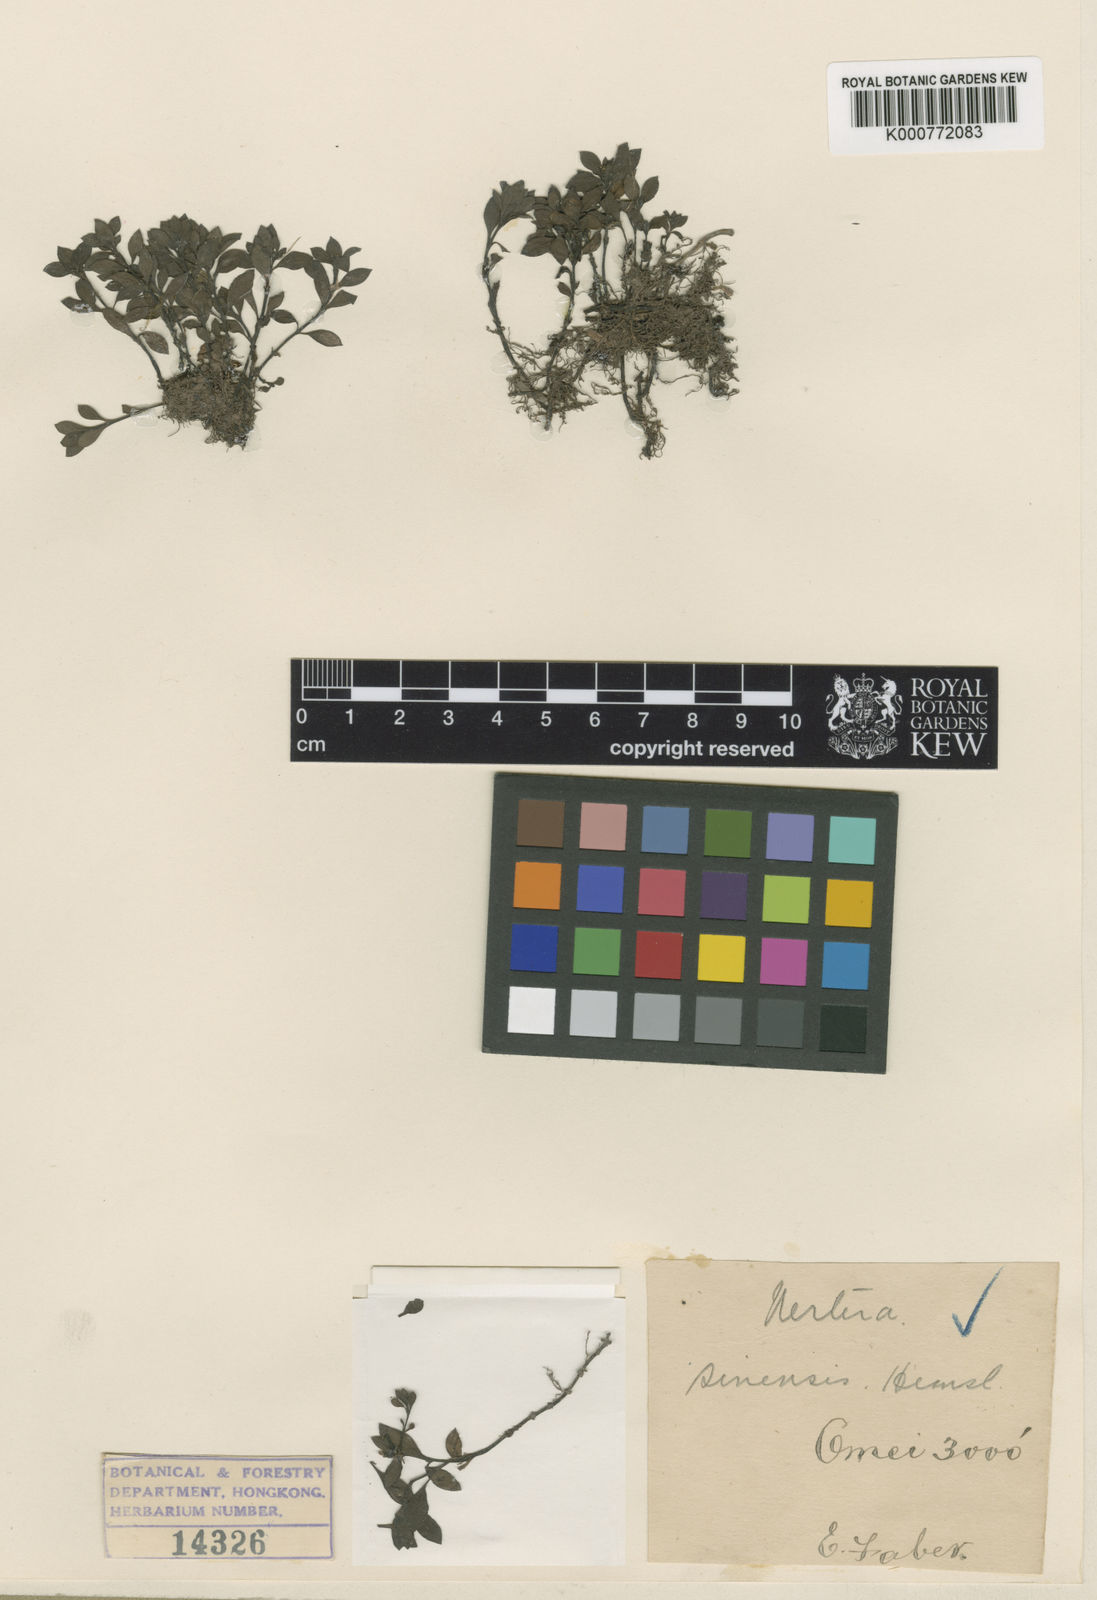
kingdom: Plantae
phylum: Tracheophyta
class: Magnoliopsida
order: Gentianales
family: Rubiaceae
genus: Nertera
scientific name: Nertera sinensis
